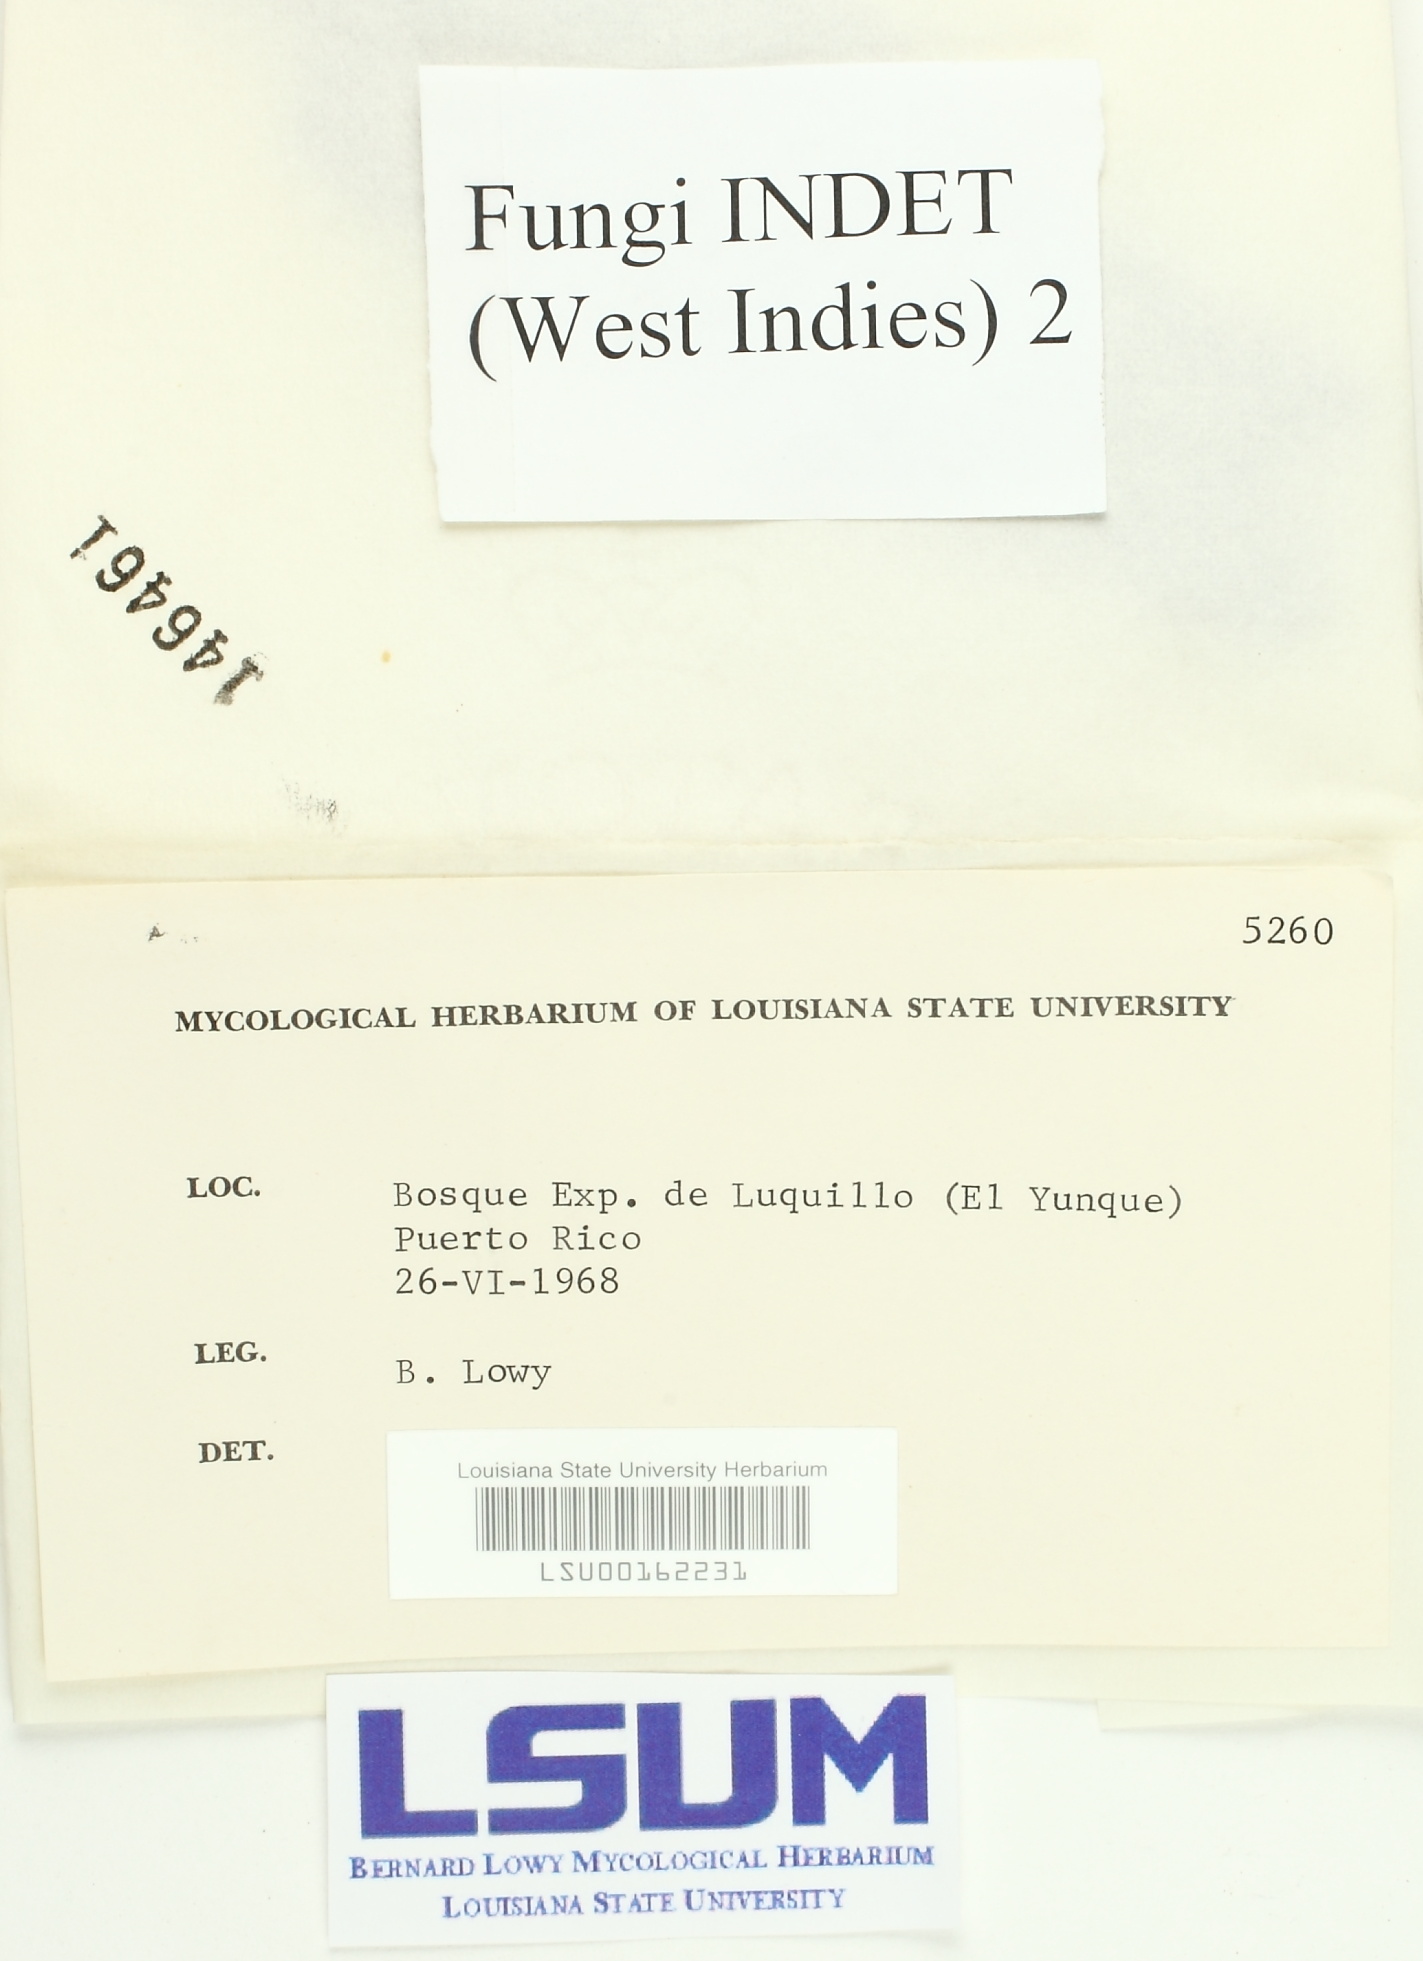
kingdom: Fungi
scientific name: Fungi
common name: Fungi
